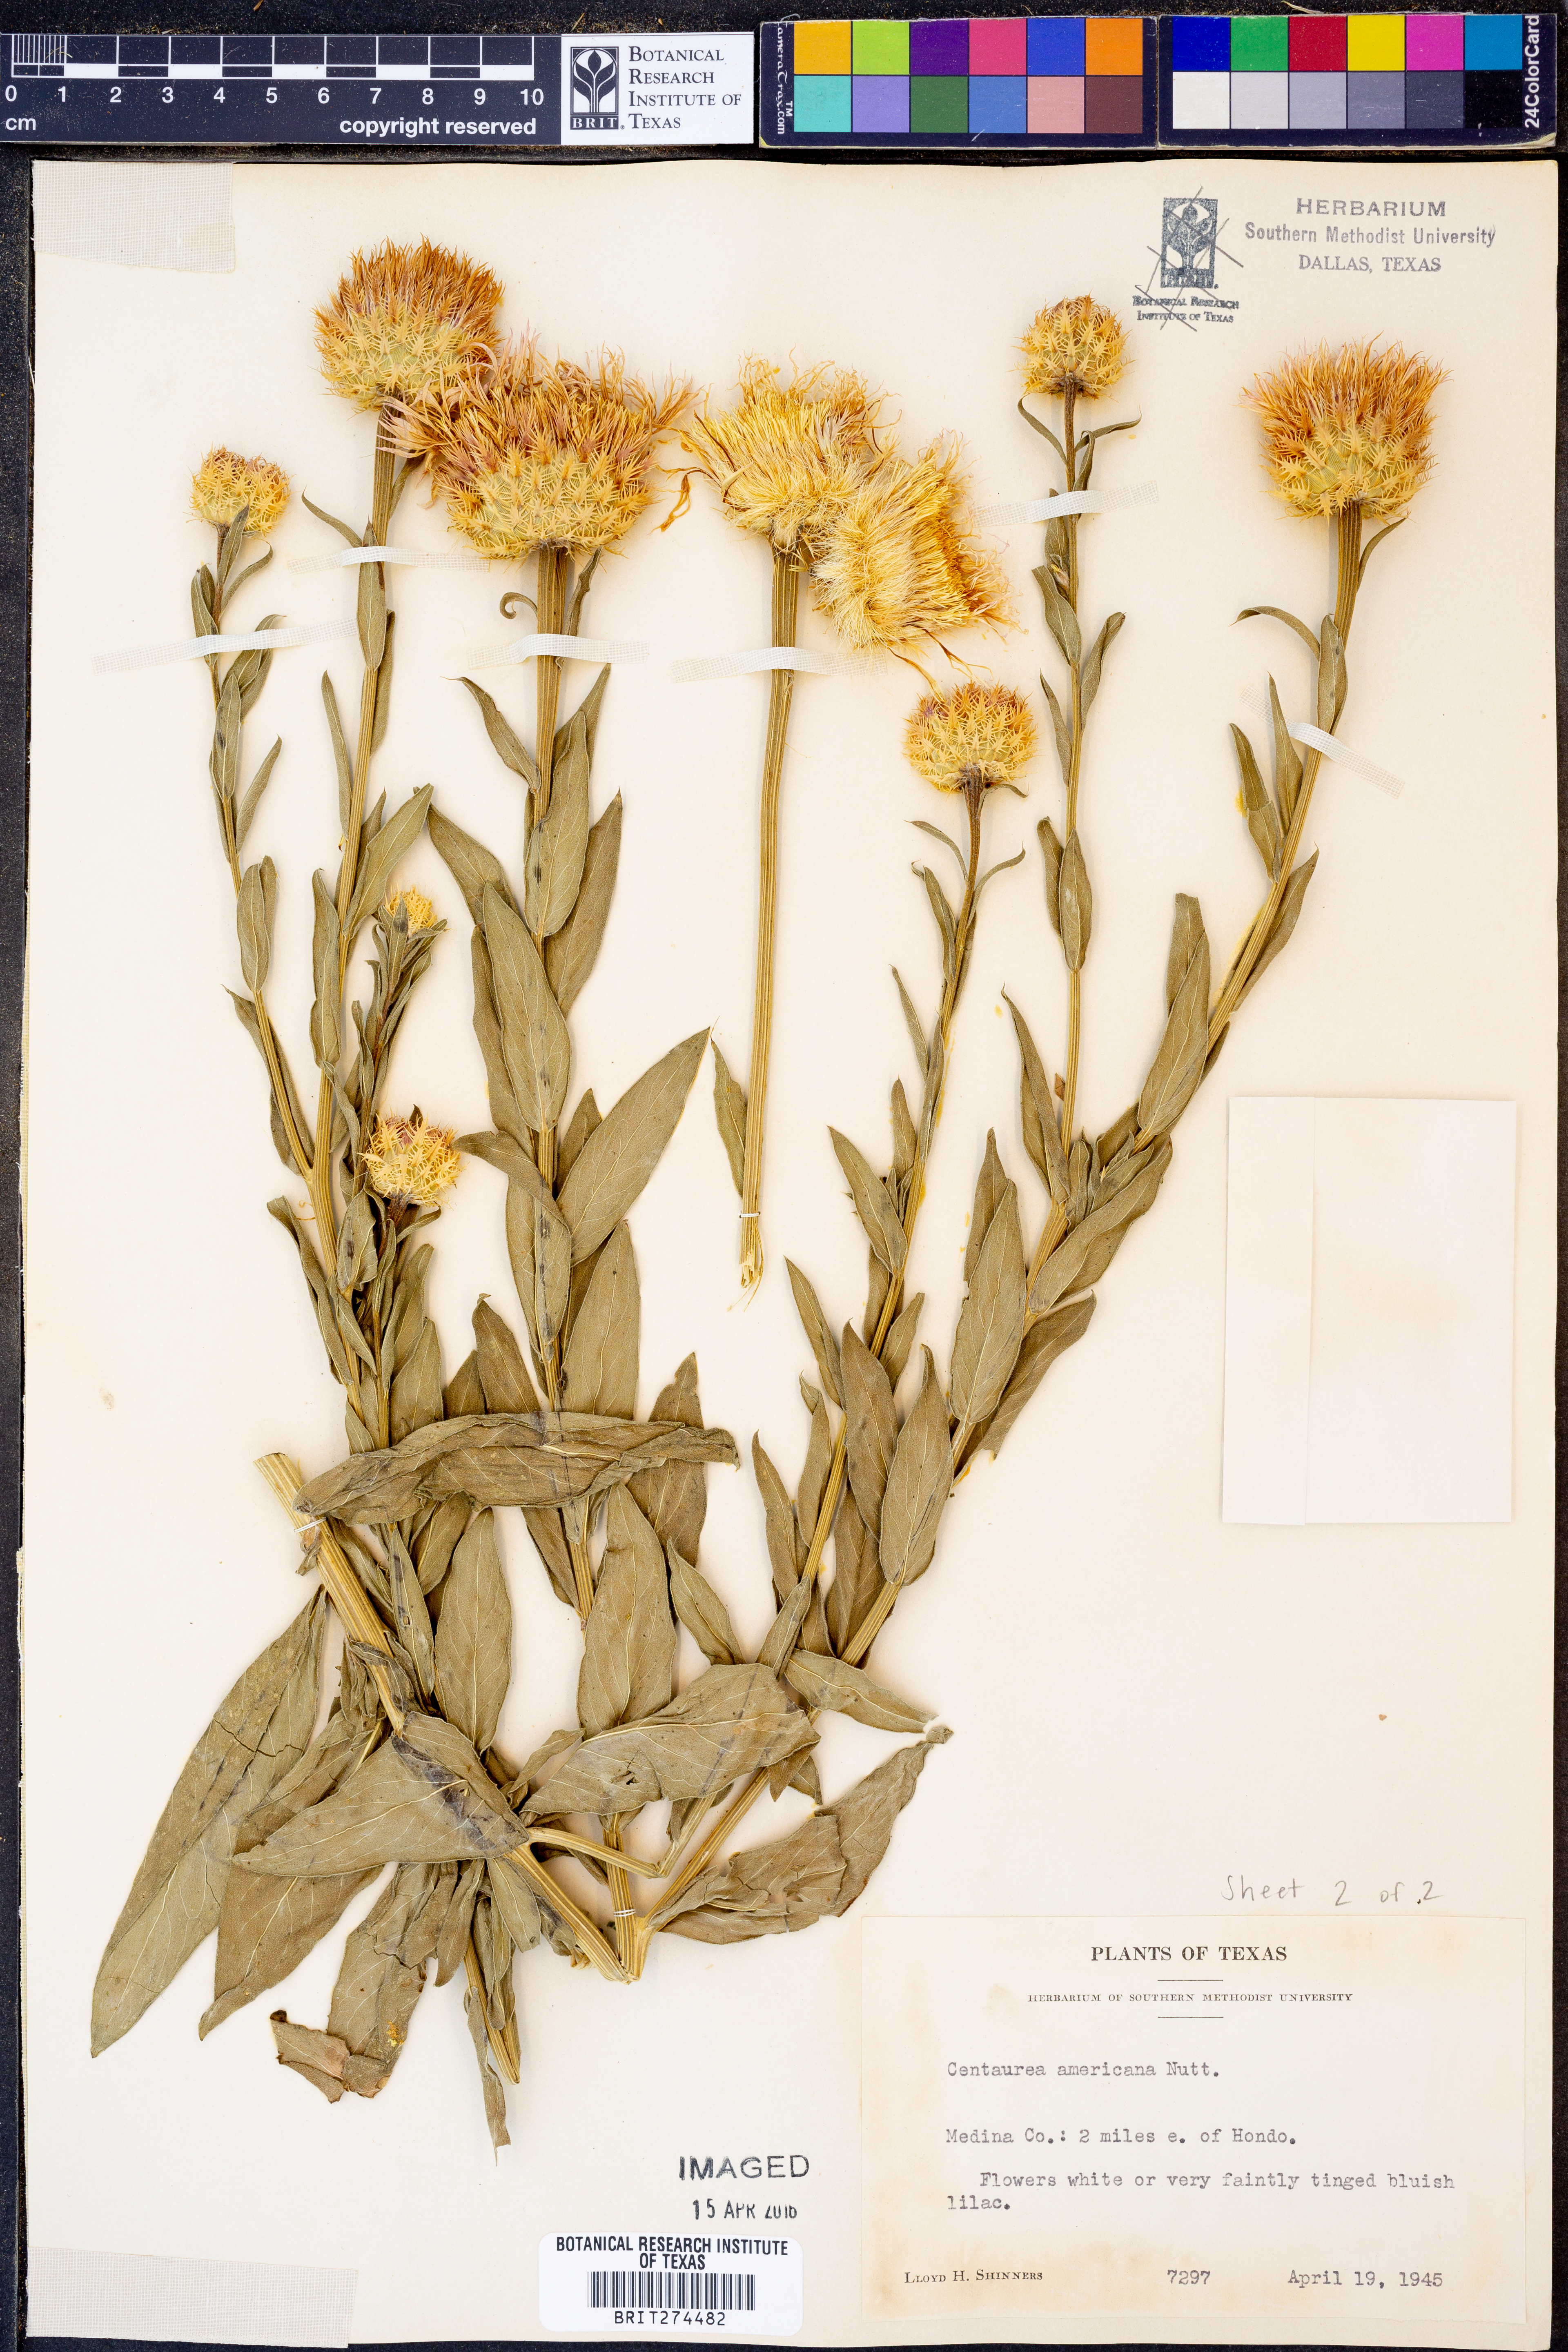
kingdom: Plantae
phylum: Tracheophyta
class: Magnoliopsida
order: Asterales
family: Asteraceae
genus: Plectocephalus
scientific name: Plectocephalus americanus
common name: American basket-flower
